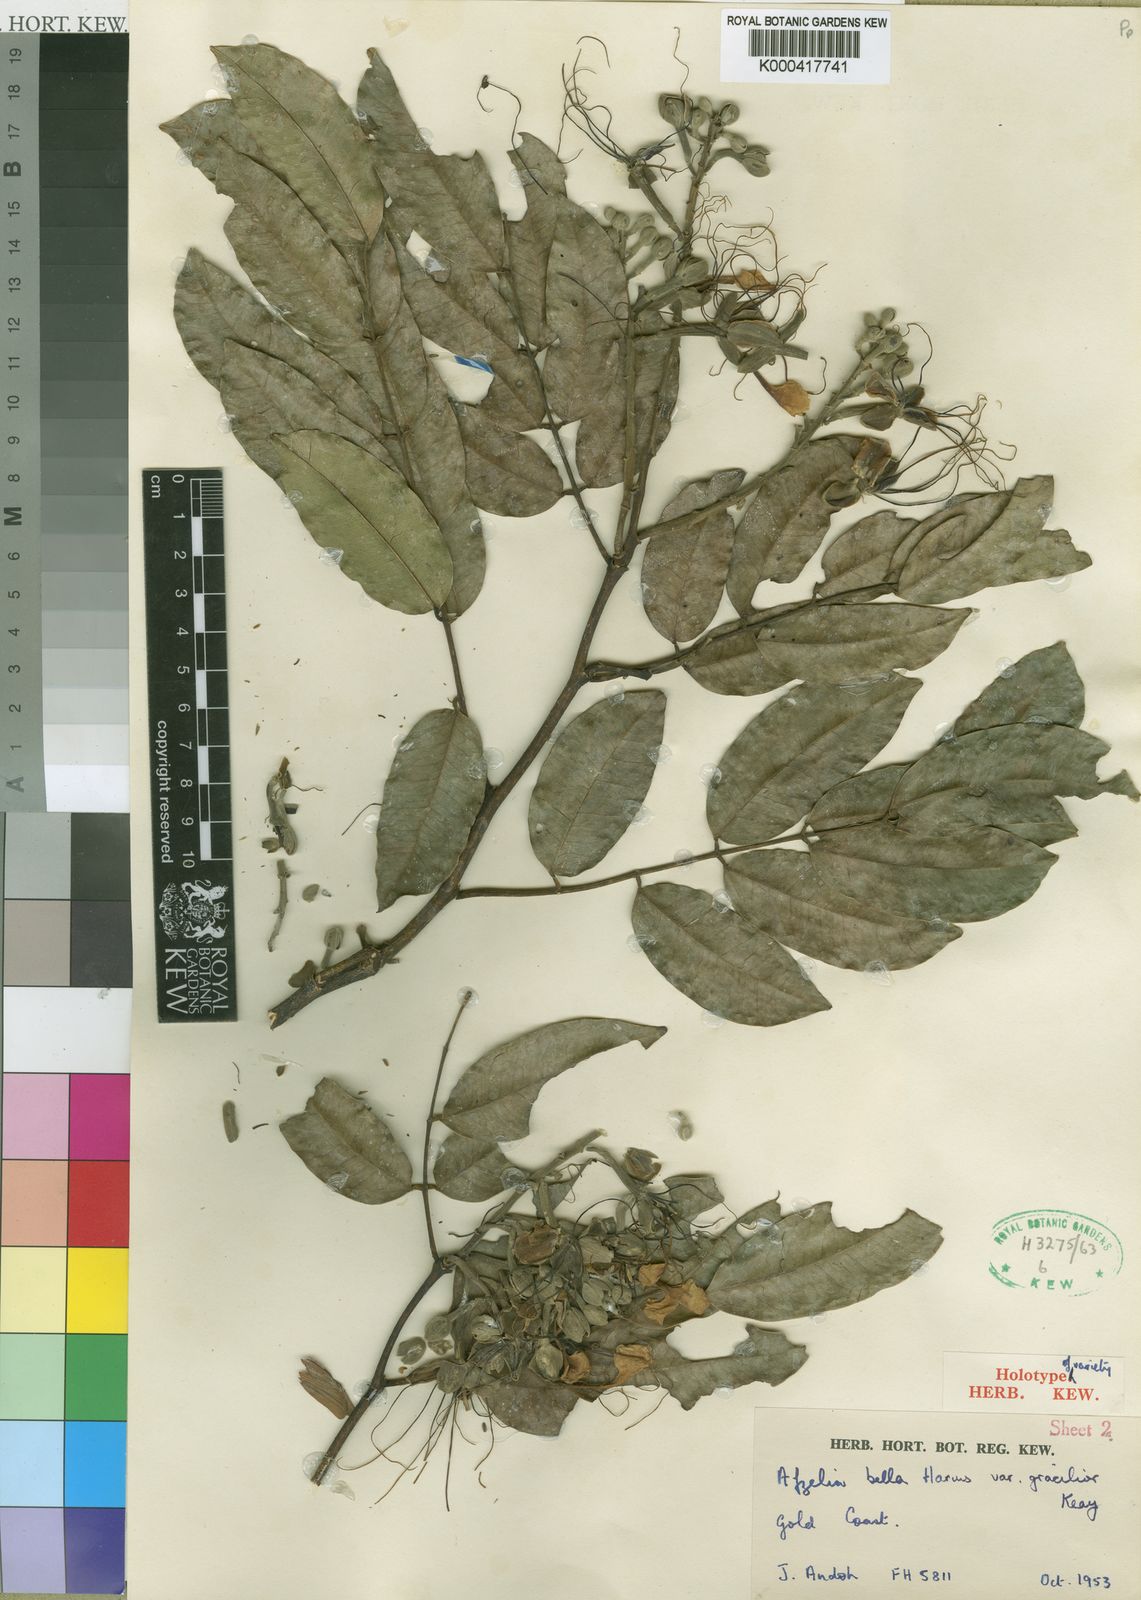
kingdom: Plantae
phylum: Tracheophyta
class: Magnoliopsida
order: Fabales
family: Fabaceae
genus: Afzelia
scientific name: Afzelia bella
